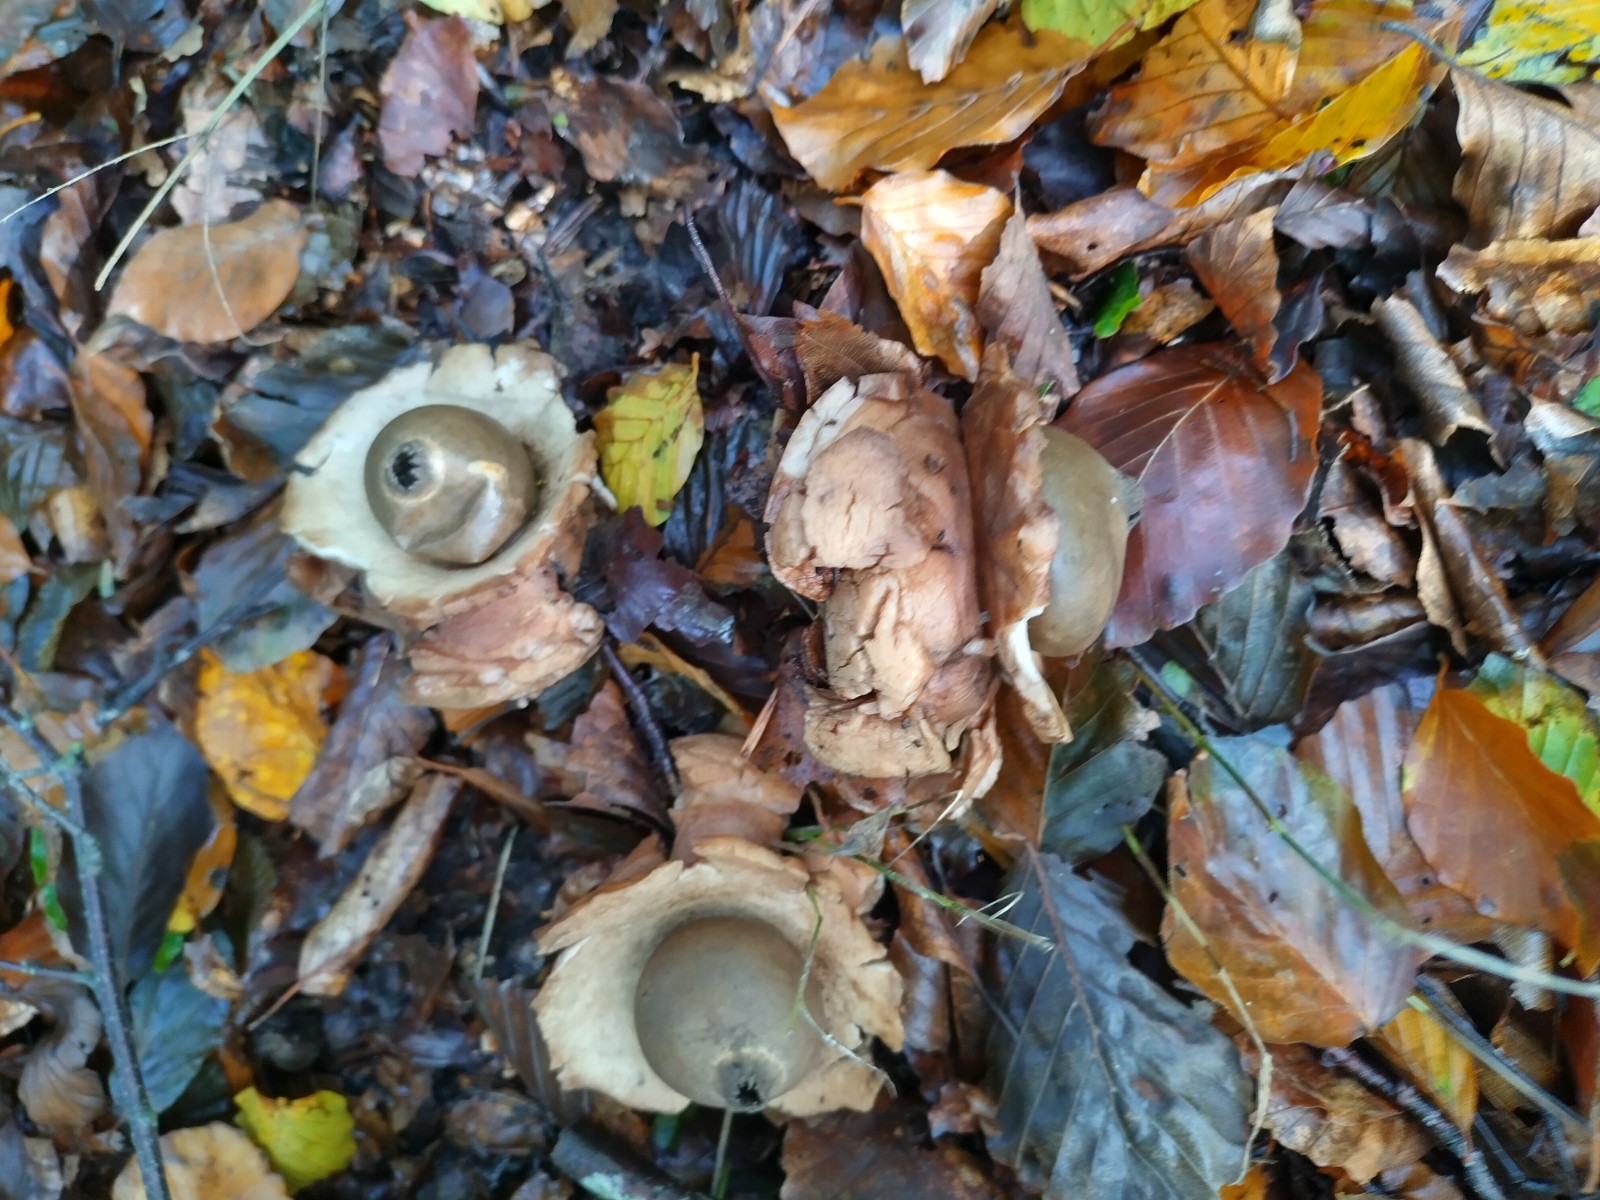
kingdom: Fungi
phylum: Basidiomycota
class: Agaricomycetes
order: Geastrales
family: Geastraceae
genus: Geastrum
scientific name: Geastrum michelianum
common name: kødet stjernebold
